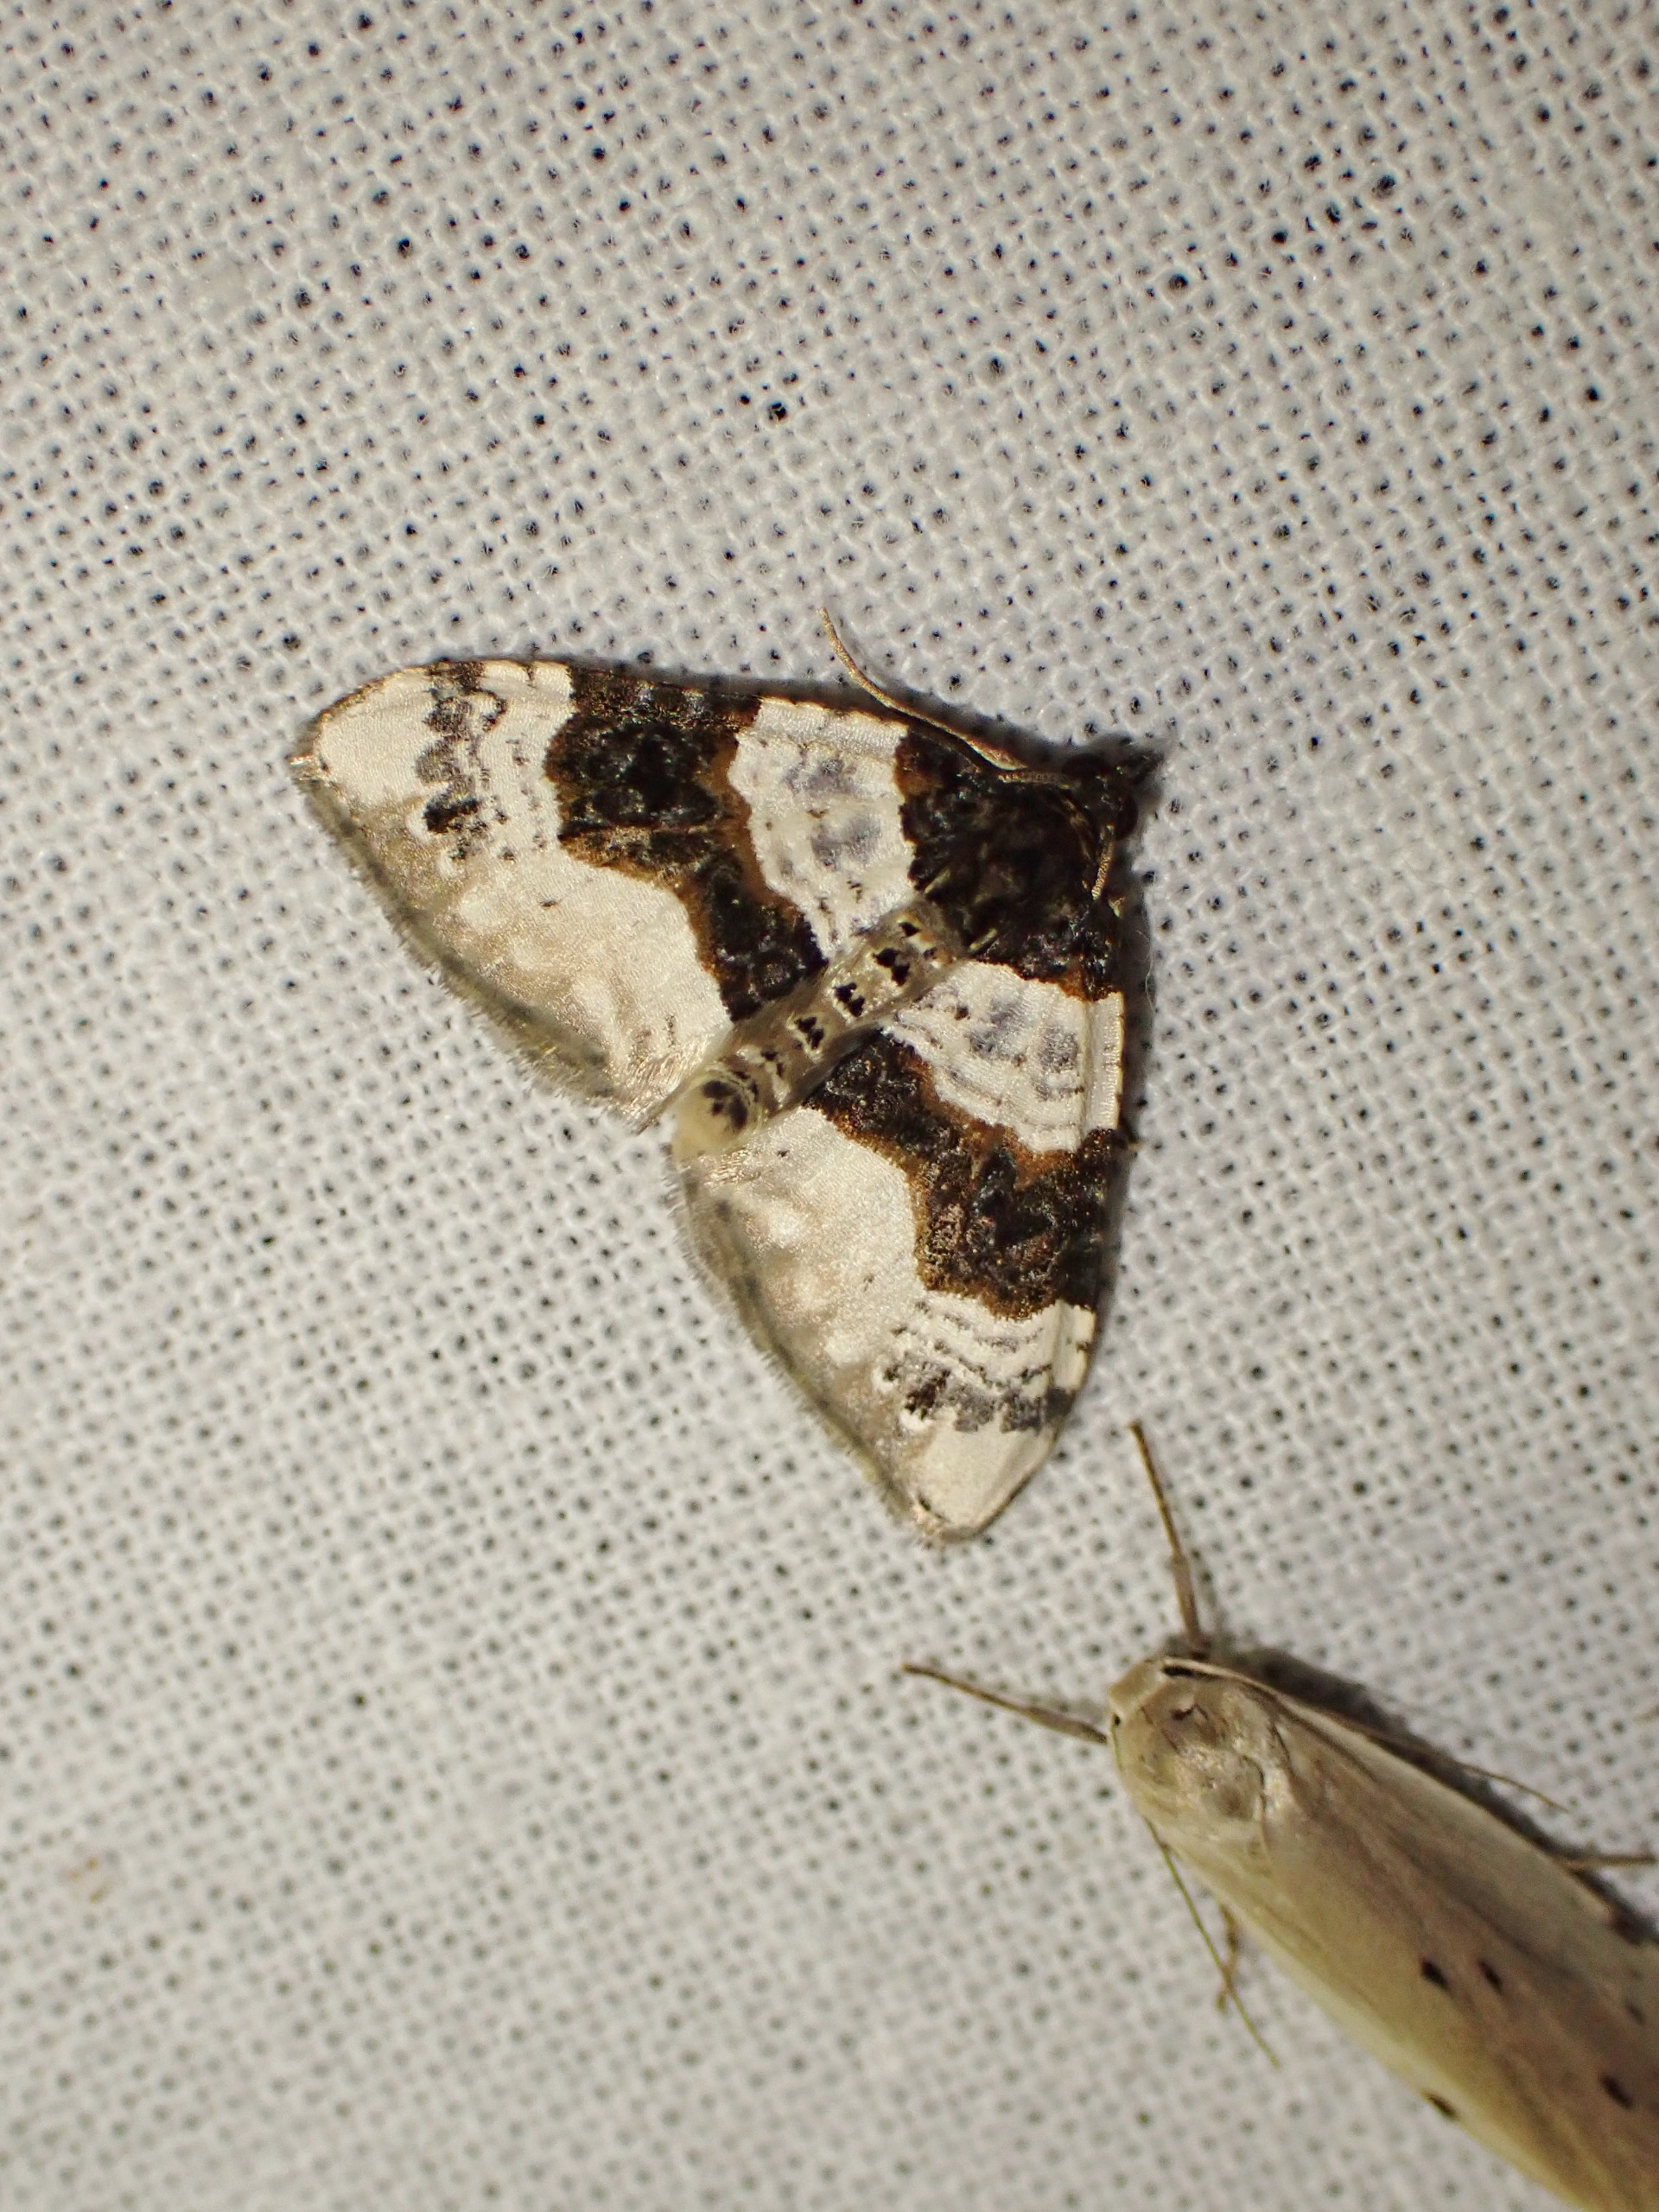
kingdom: Animalia
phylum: Arthropoda
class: Insecta
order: Lepidoptera
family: Geometridae
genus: Cosmorhoe
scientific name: Cosmorhoe ocellata
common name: Snerre-bladmåler
